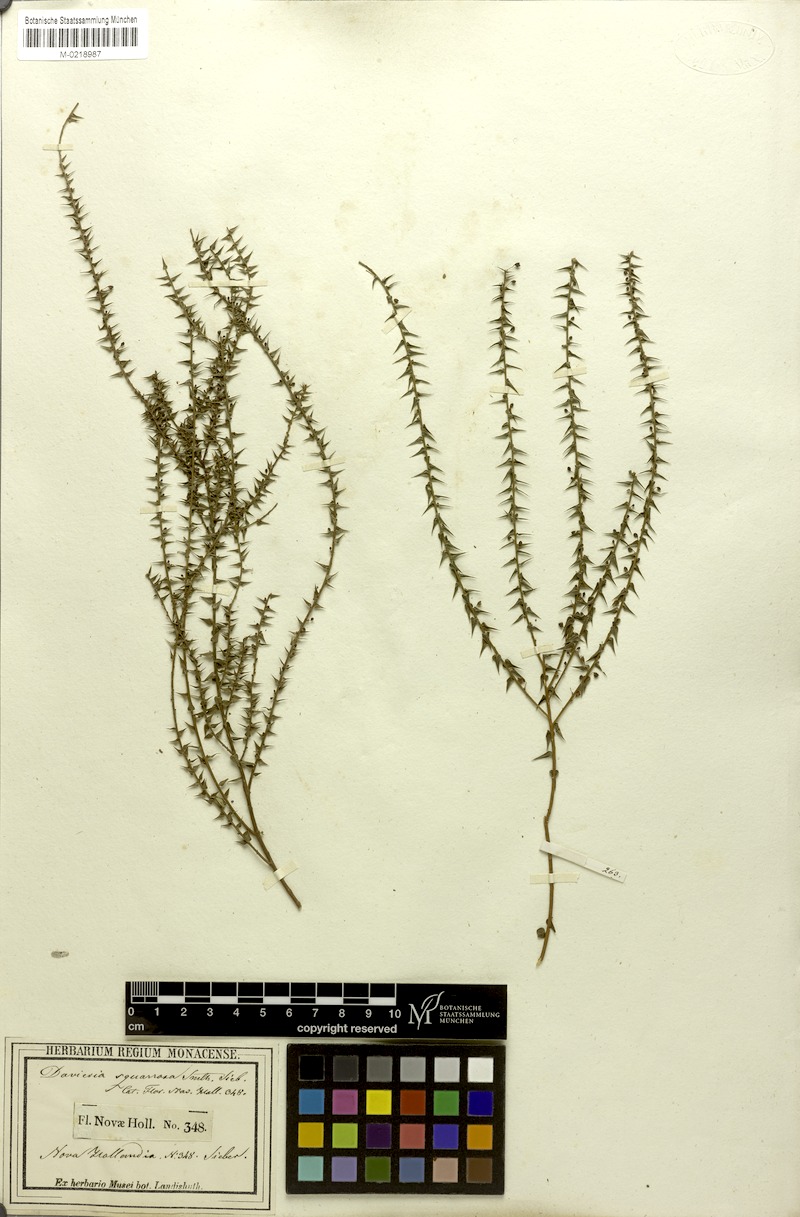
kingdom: Plantae
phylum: Tracheophyta
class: Magnoliopsida
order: Fabales
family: Fabaceae
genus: Daviesia
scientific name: Daviesia squarrosa
